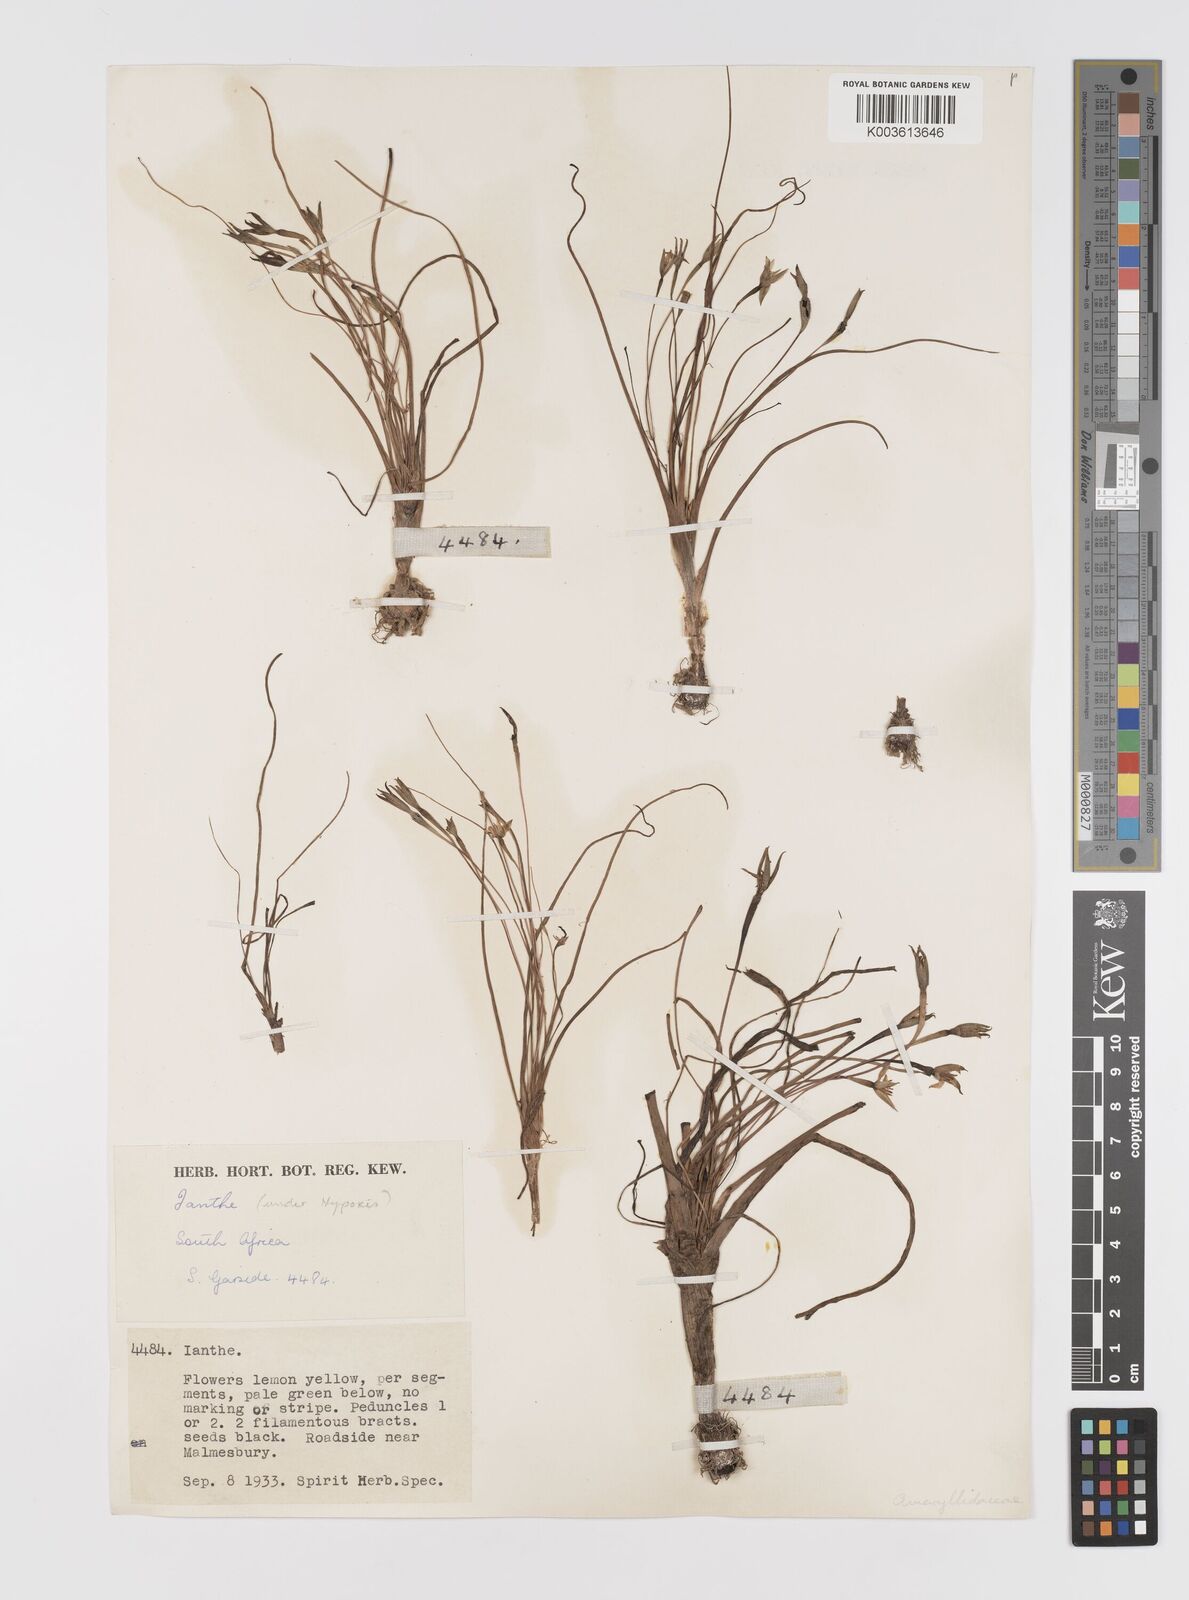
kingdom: Plantae
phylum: Tracheophyta
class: Liliopsida
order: Asparagales
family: Hypoxidaceae
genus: Pauridia
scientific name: Pauridia
